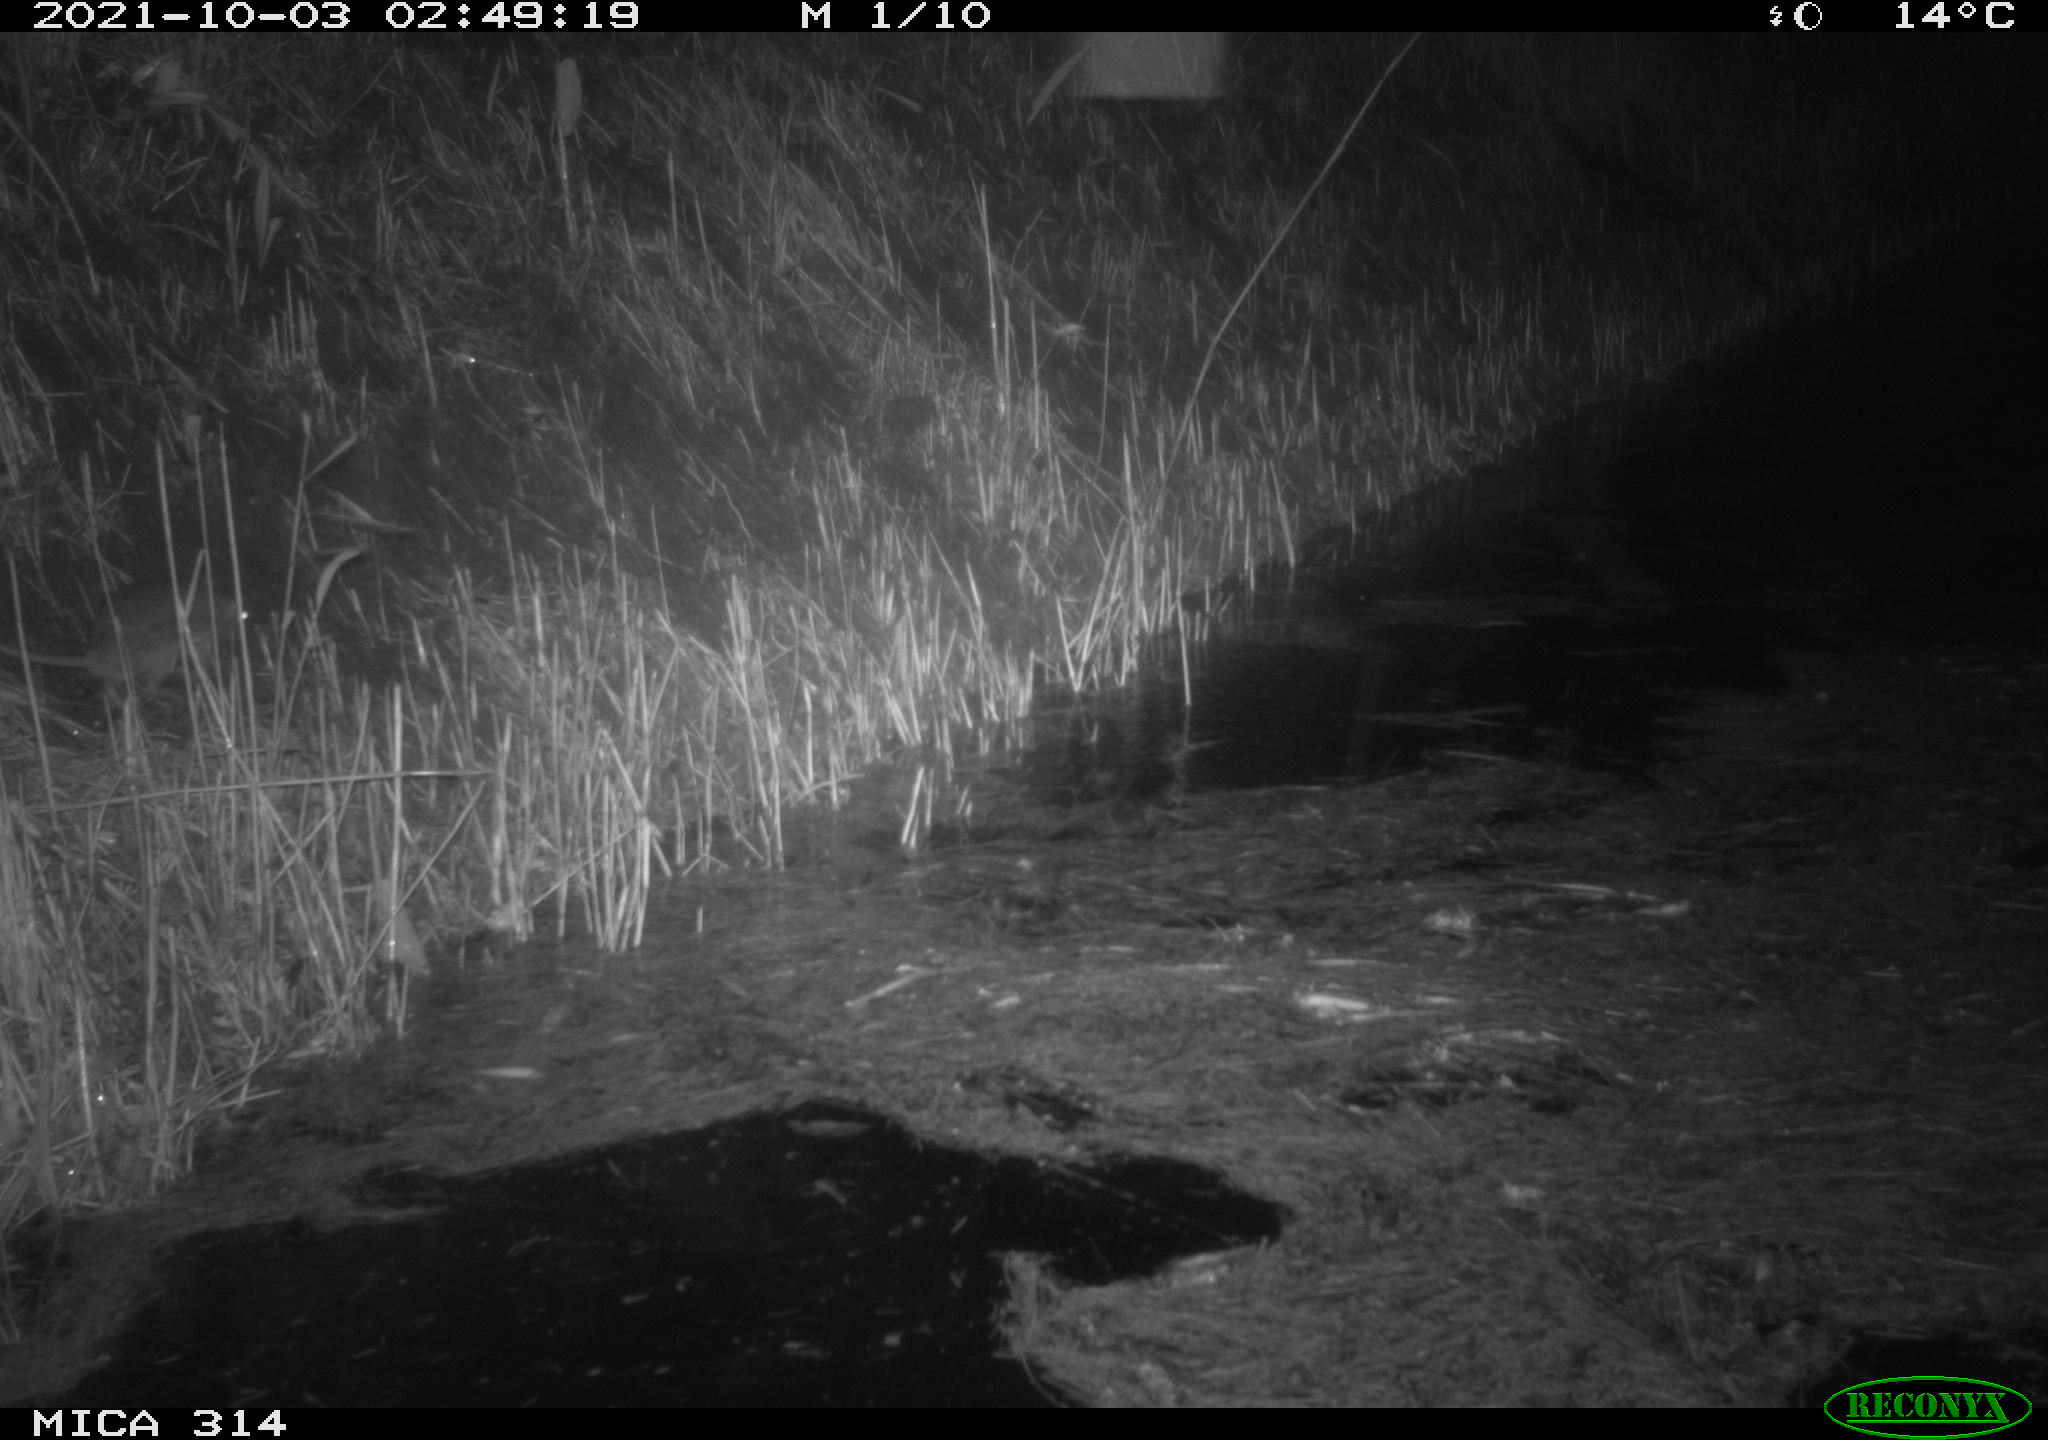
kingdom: Animalia
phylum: Chordata
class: Mammalia
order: Rodentia
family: Muridae
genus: Rattus
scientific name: Rattus norvegicus
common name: Brown rat
